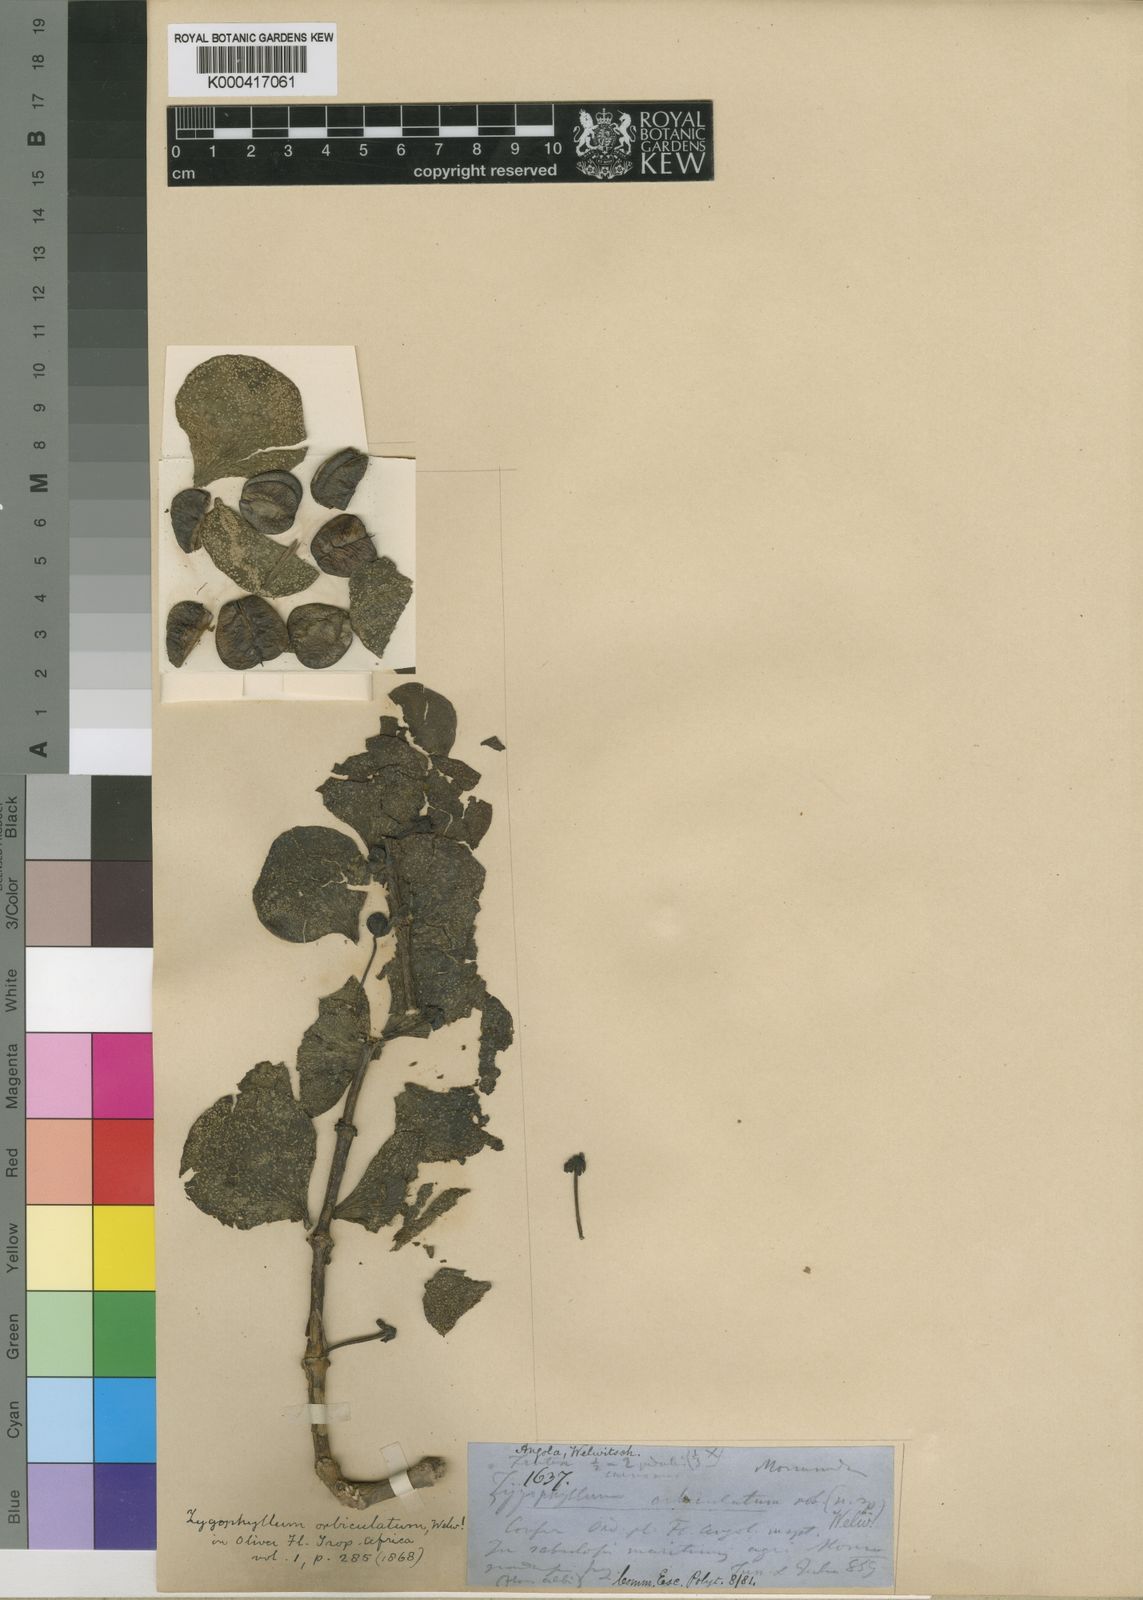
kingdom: Plantae
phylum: Tracheophyta
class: Magnoliopsida
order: Zygophyllales
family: Zygophyllaceae
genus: Zygophyllum
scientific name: Zygophyllum
